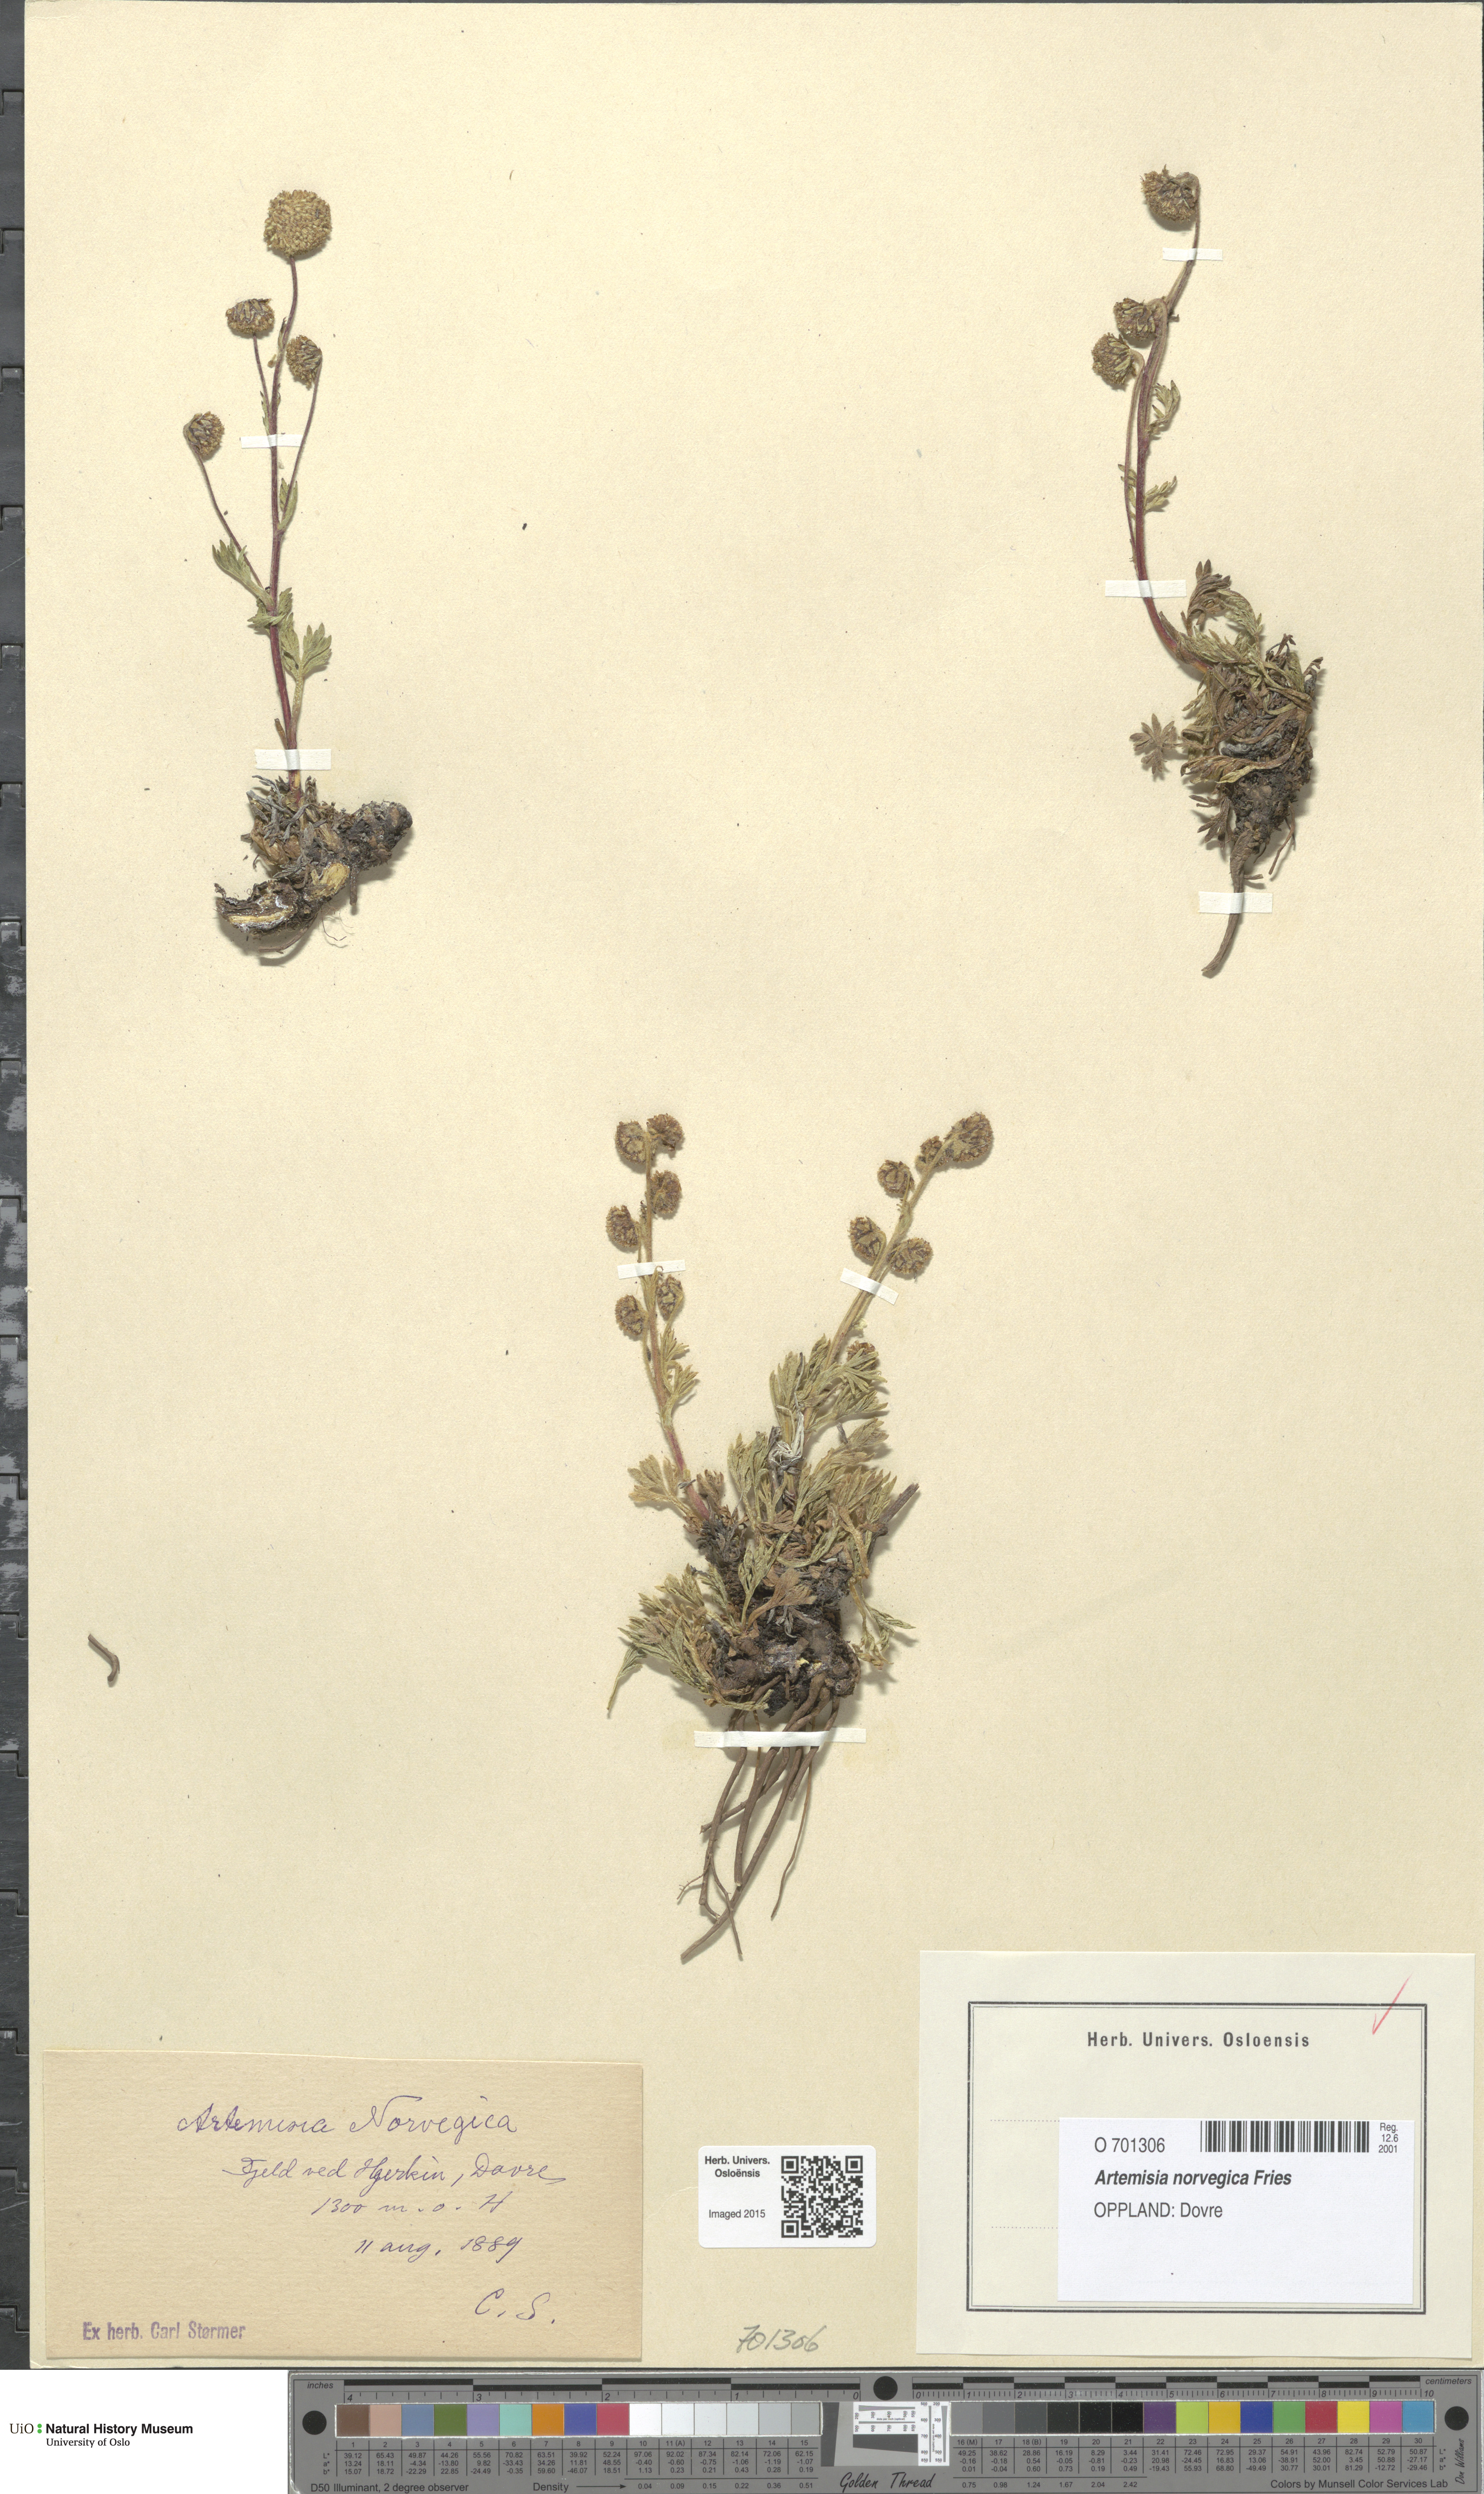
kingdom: Plantae
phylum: Tracheophyta
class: Magnoliopsida
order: Asterales
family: Asteraceae
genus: Artemisia
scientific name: Artemisia norvegica
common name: Norwegian mugwort
